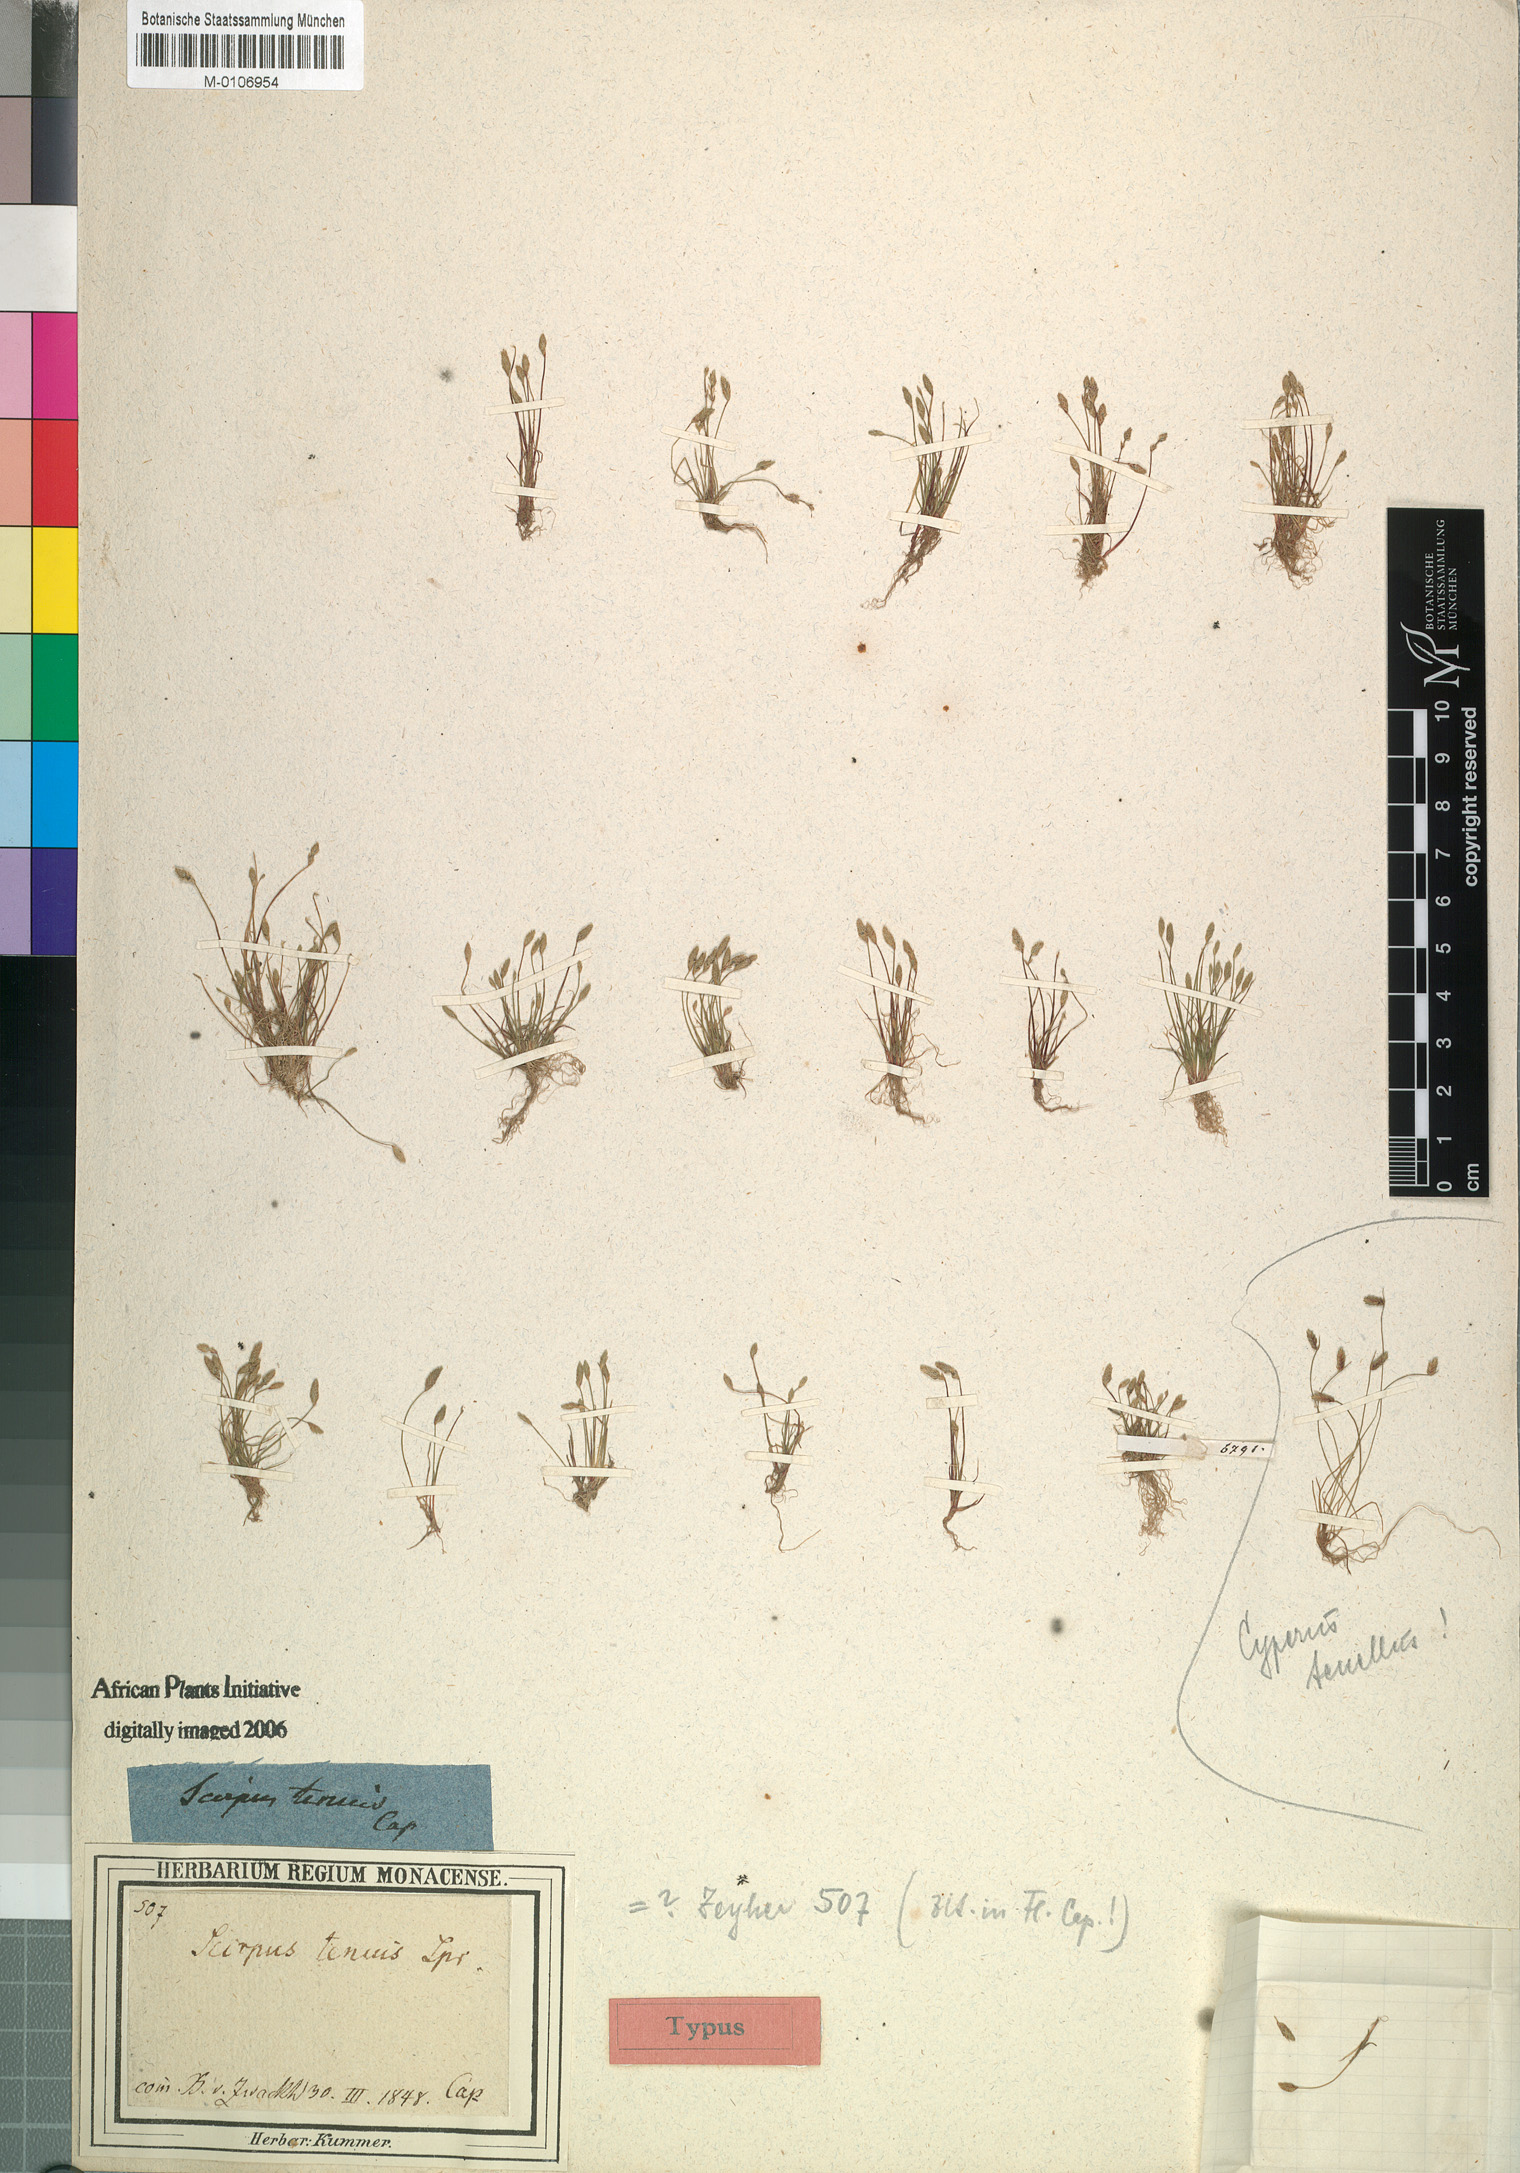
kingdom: Plantae
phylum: Tracheophyta
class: Liliopsida
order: Poales
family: Cyperaceae
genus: Isolepis
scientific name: Isolepis pusilla
